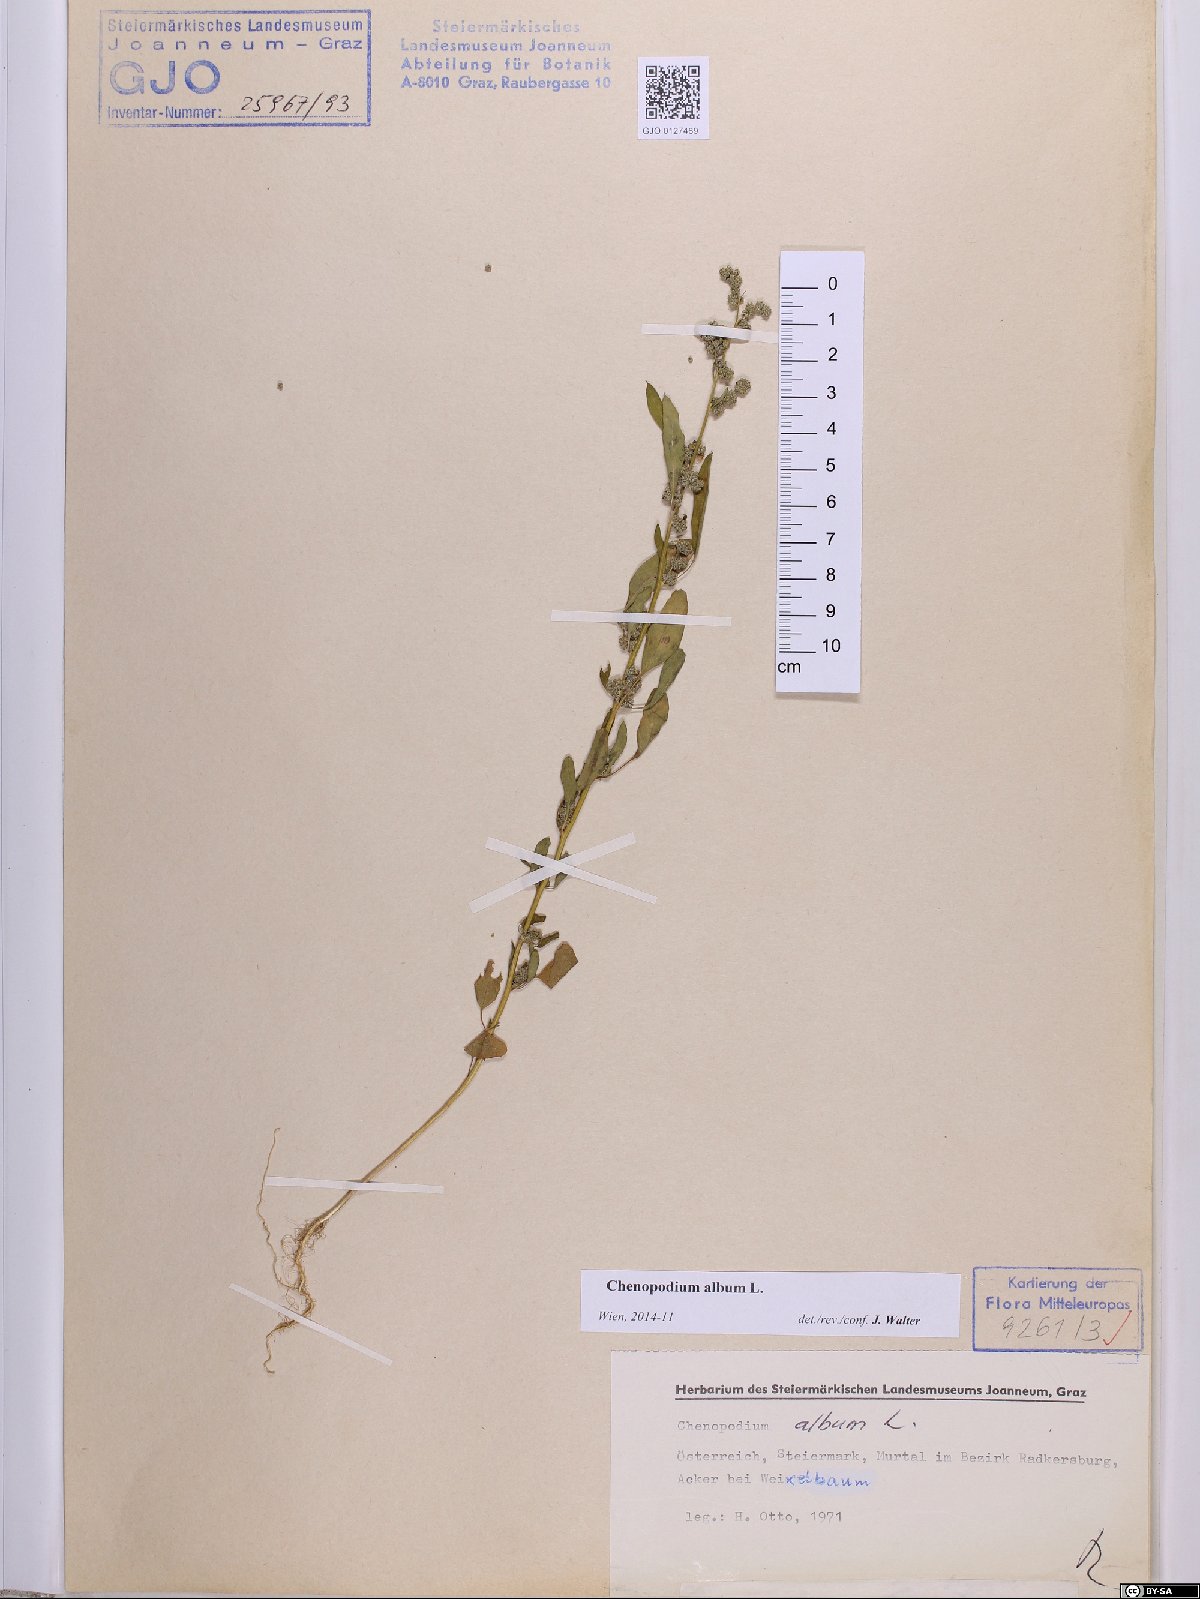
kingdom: Plantae
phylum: Tracheophyta
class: Magnoliopsida
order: Caryophyllales
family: Amaranthaceae
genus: Chenopodium
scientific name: Chenopodium album
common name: Fat-hen
